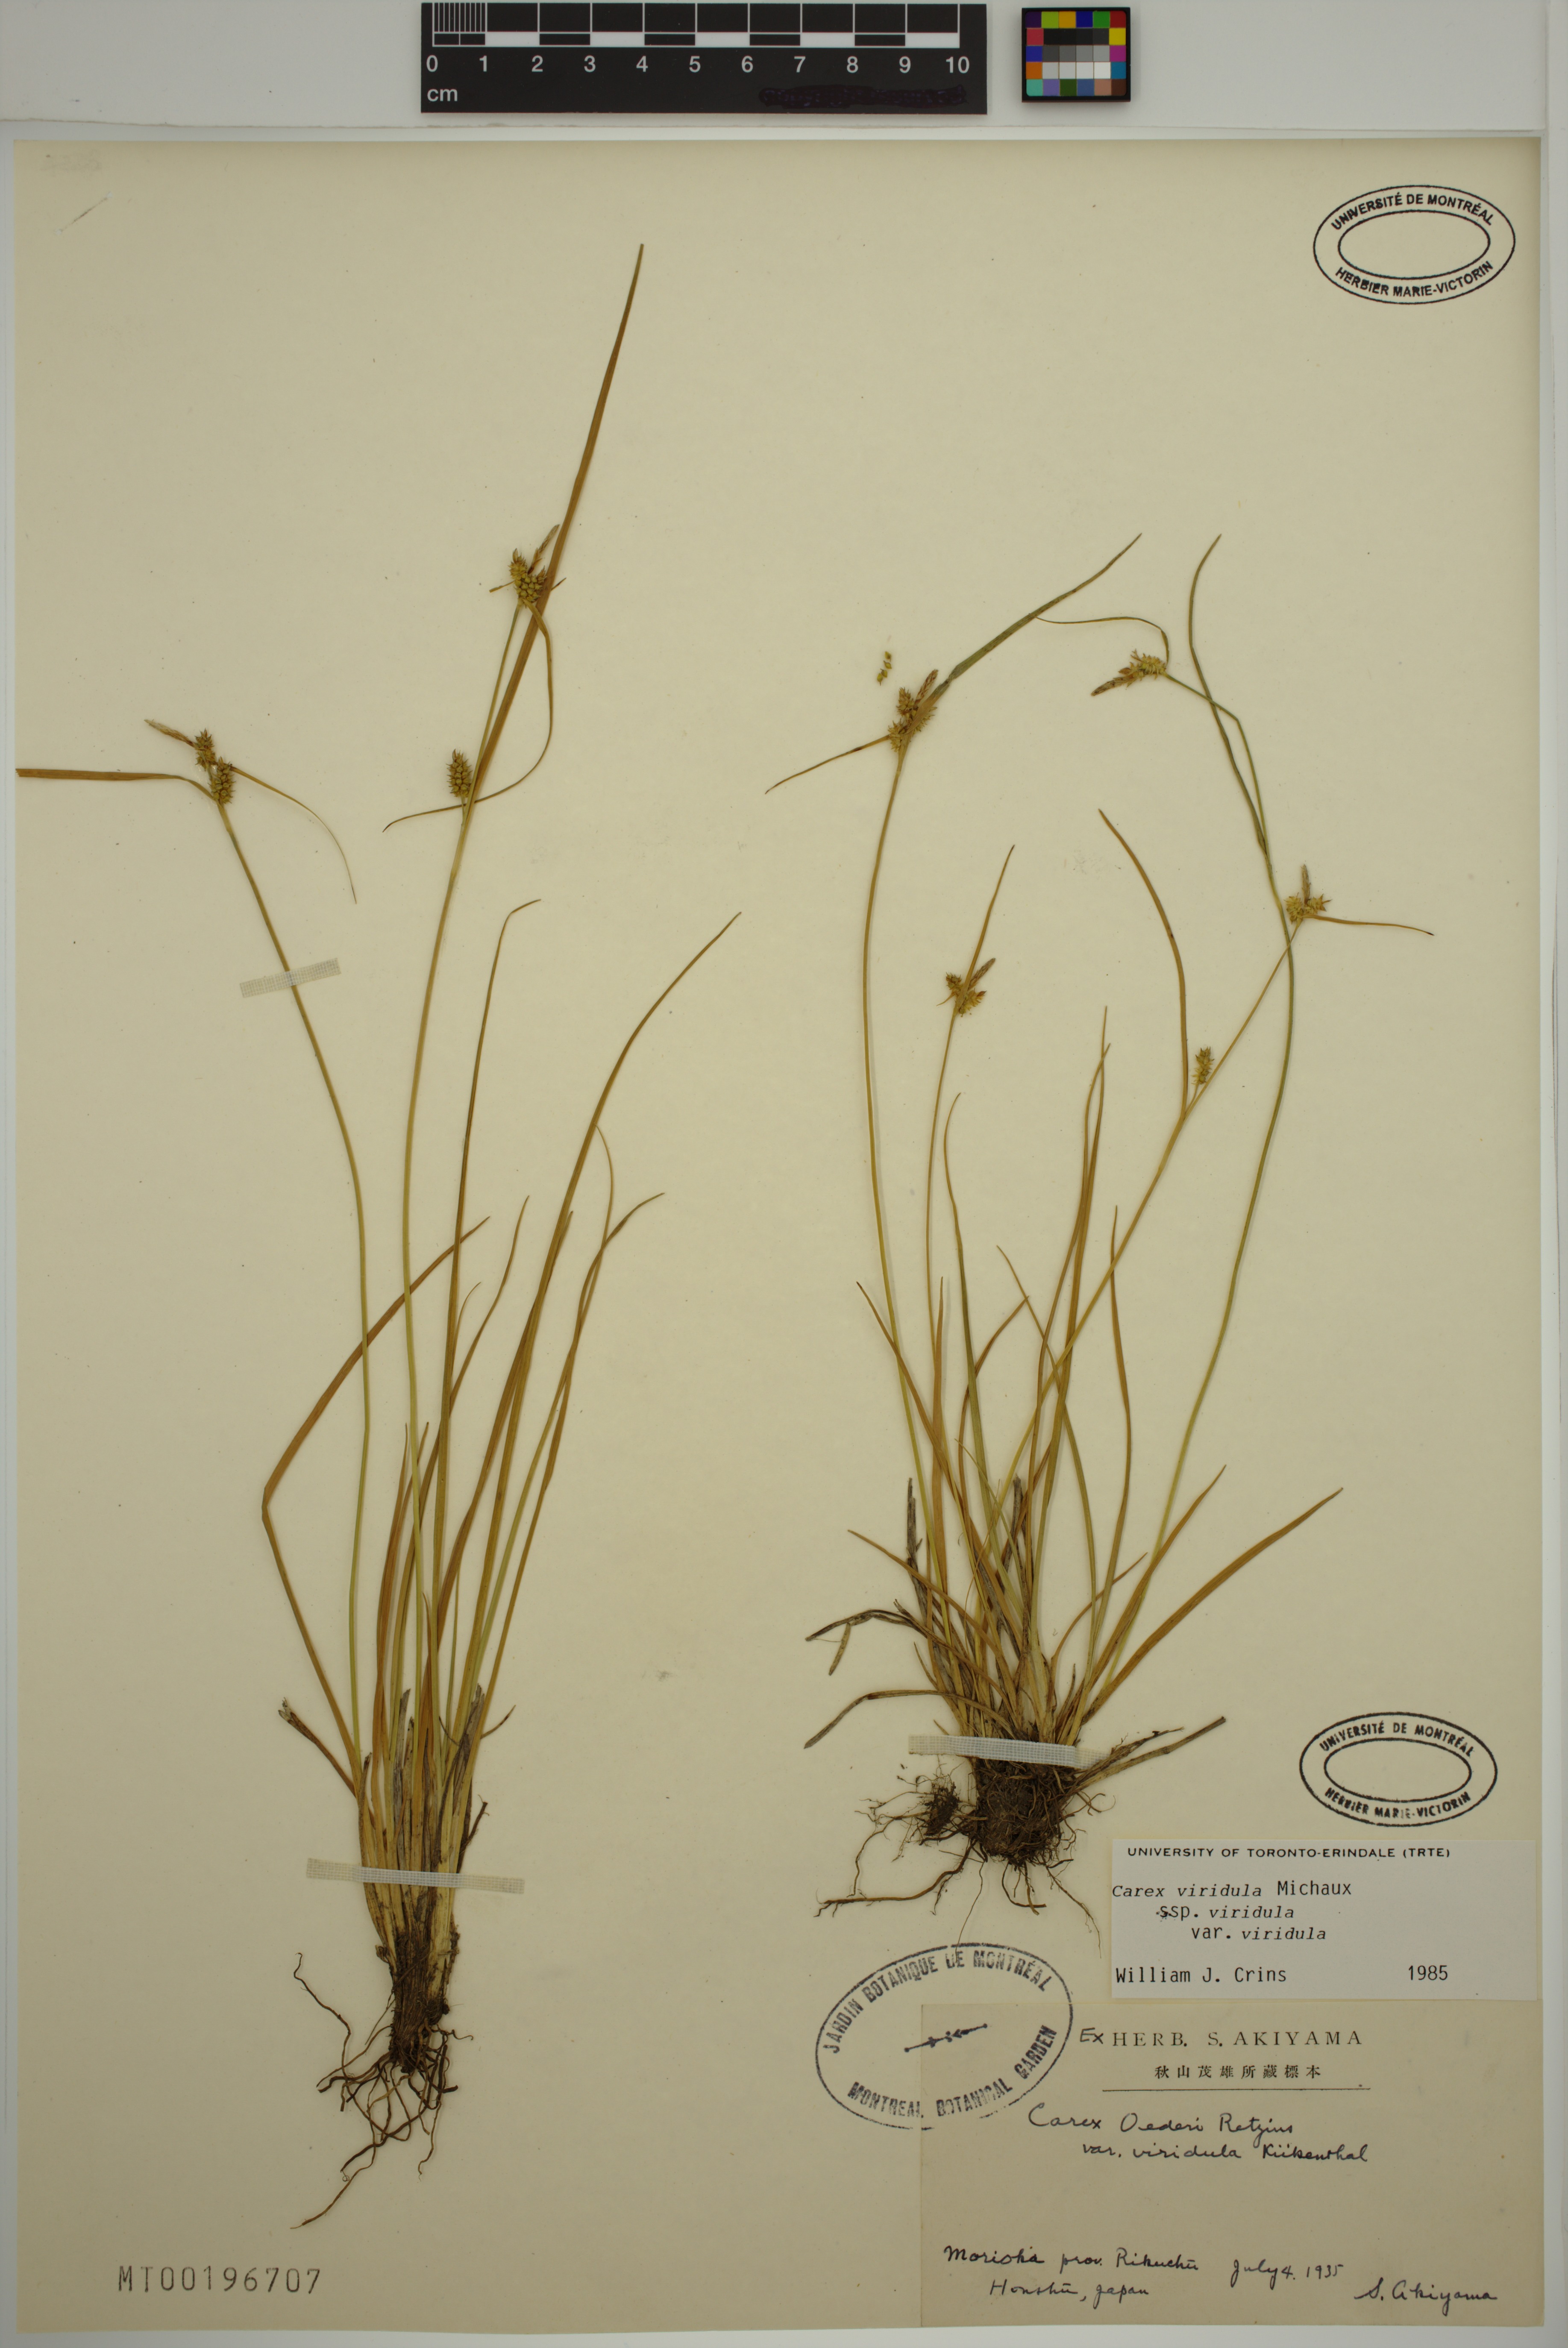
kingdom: Plantae
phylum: Tracheophyta
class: Liliopsida
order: Poales
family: Cyperaceae
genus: Carex
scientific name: Carex oederi
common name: Common & small-fruited yellow-sedge
